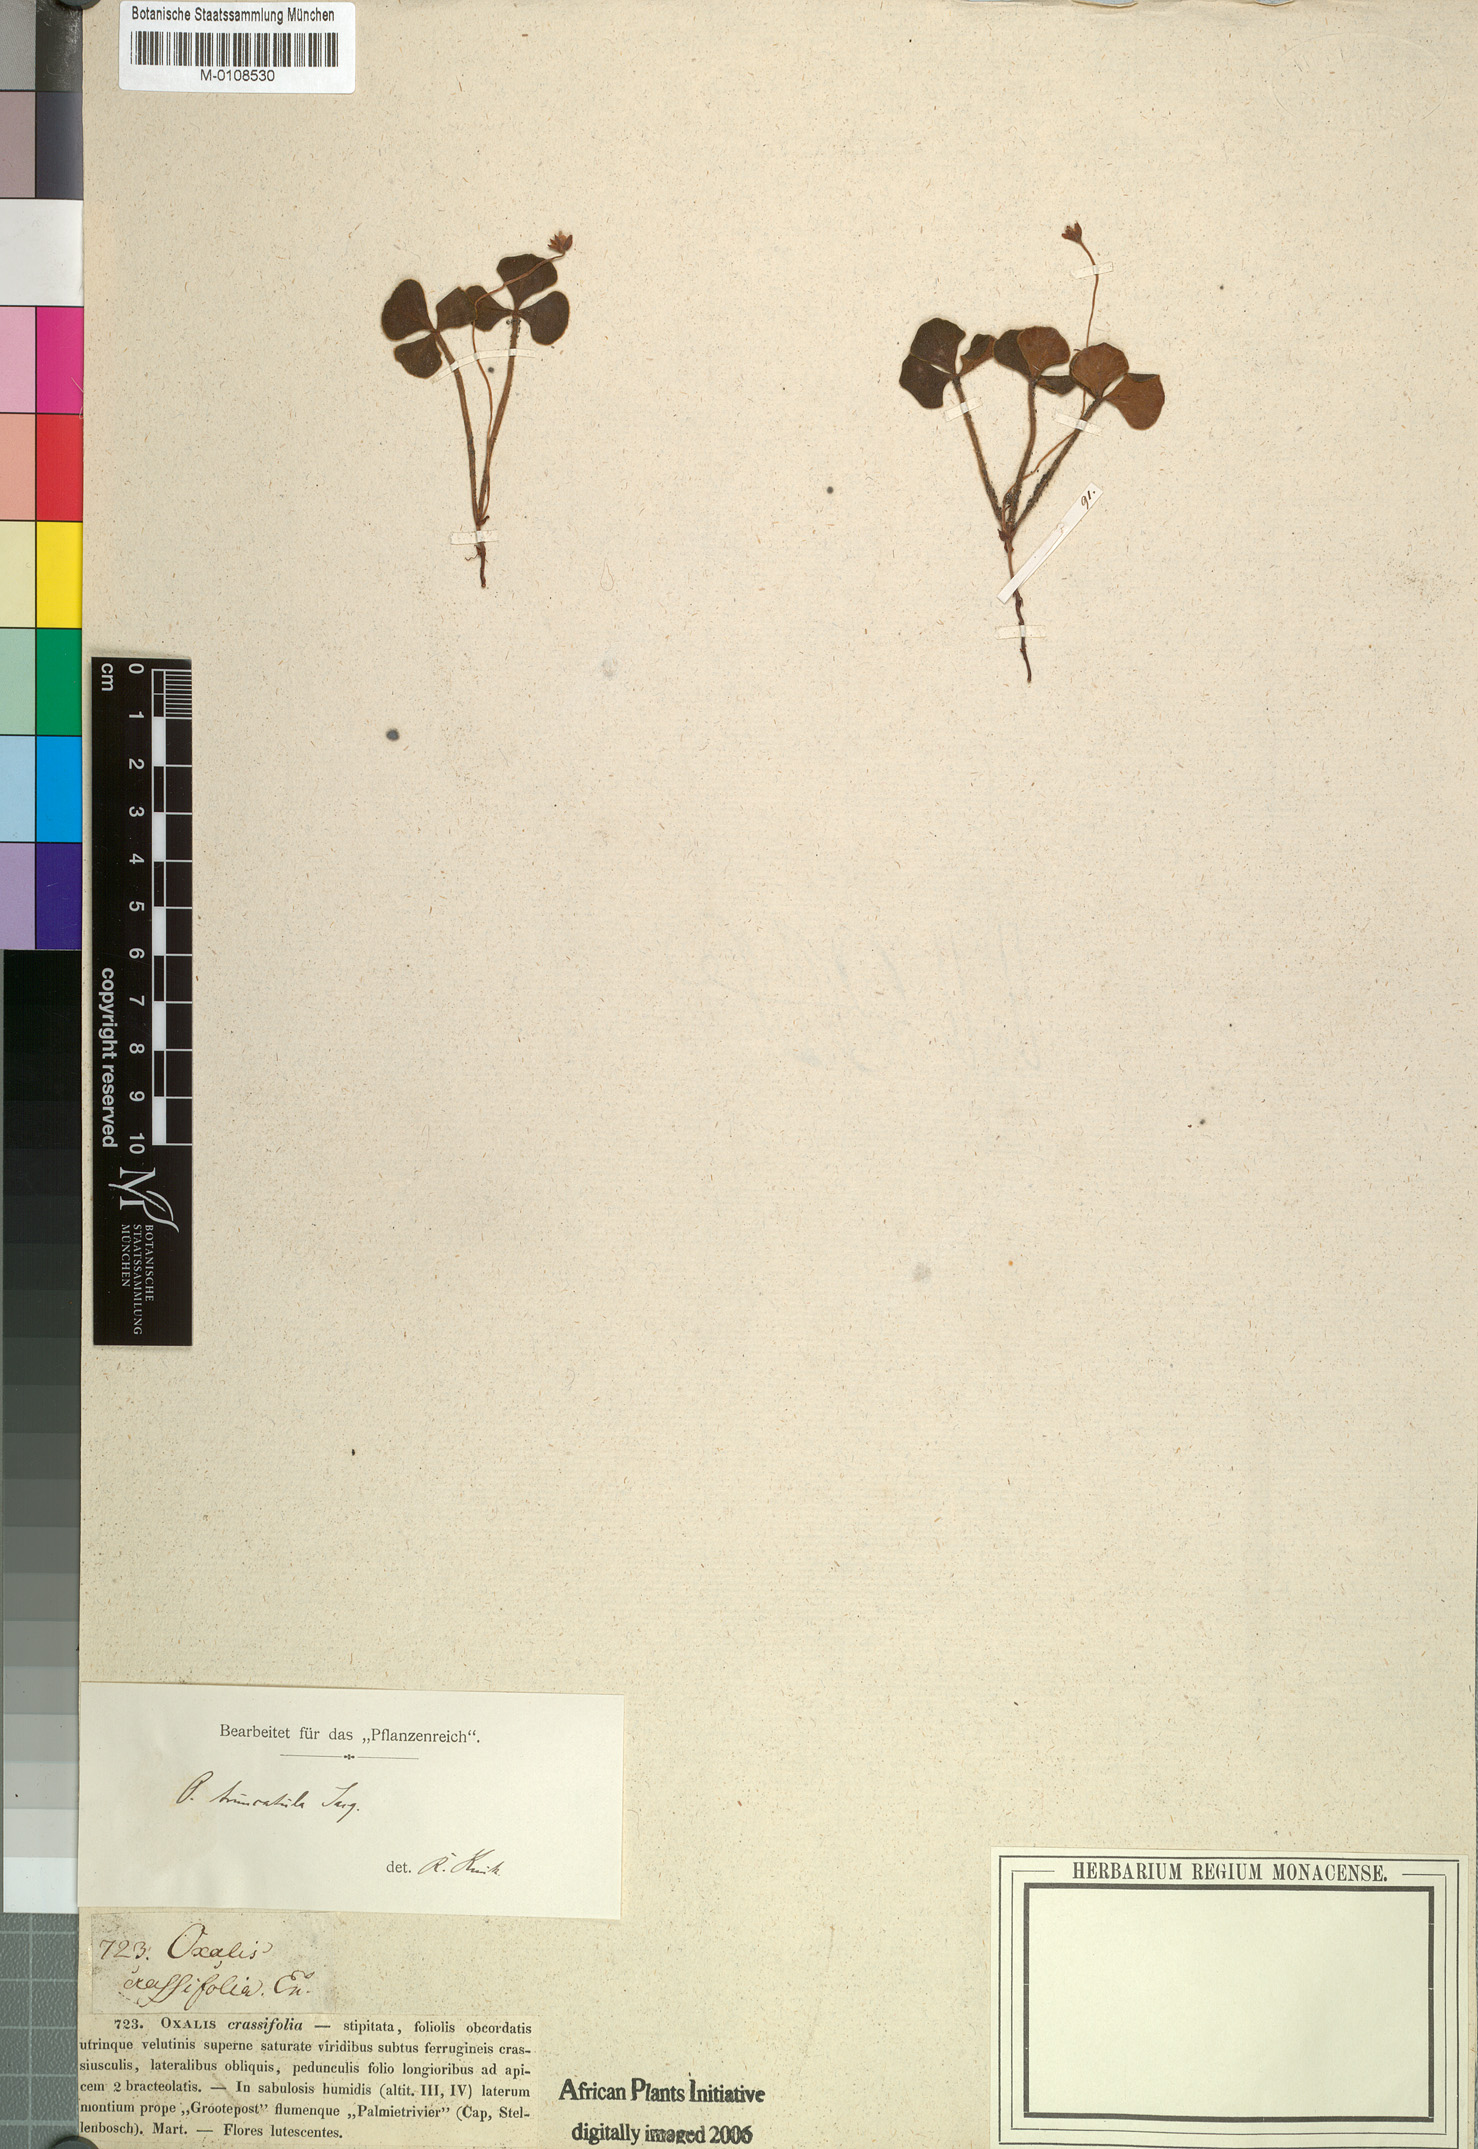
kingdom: Plantae
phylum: Tracheophyta
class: Magnoliopsida
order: Oxalidales
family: Oxalidaceae
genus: Oxalis
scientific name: Oxalis truncatula
